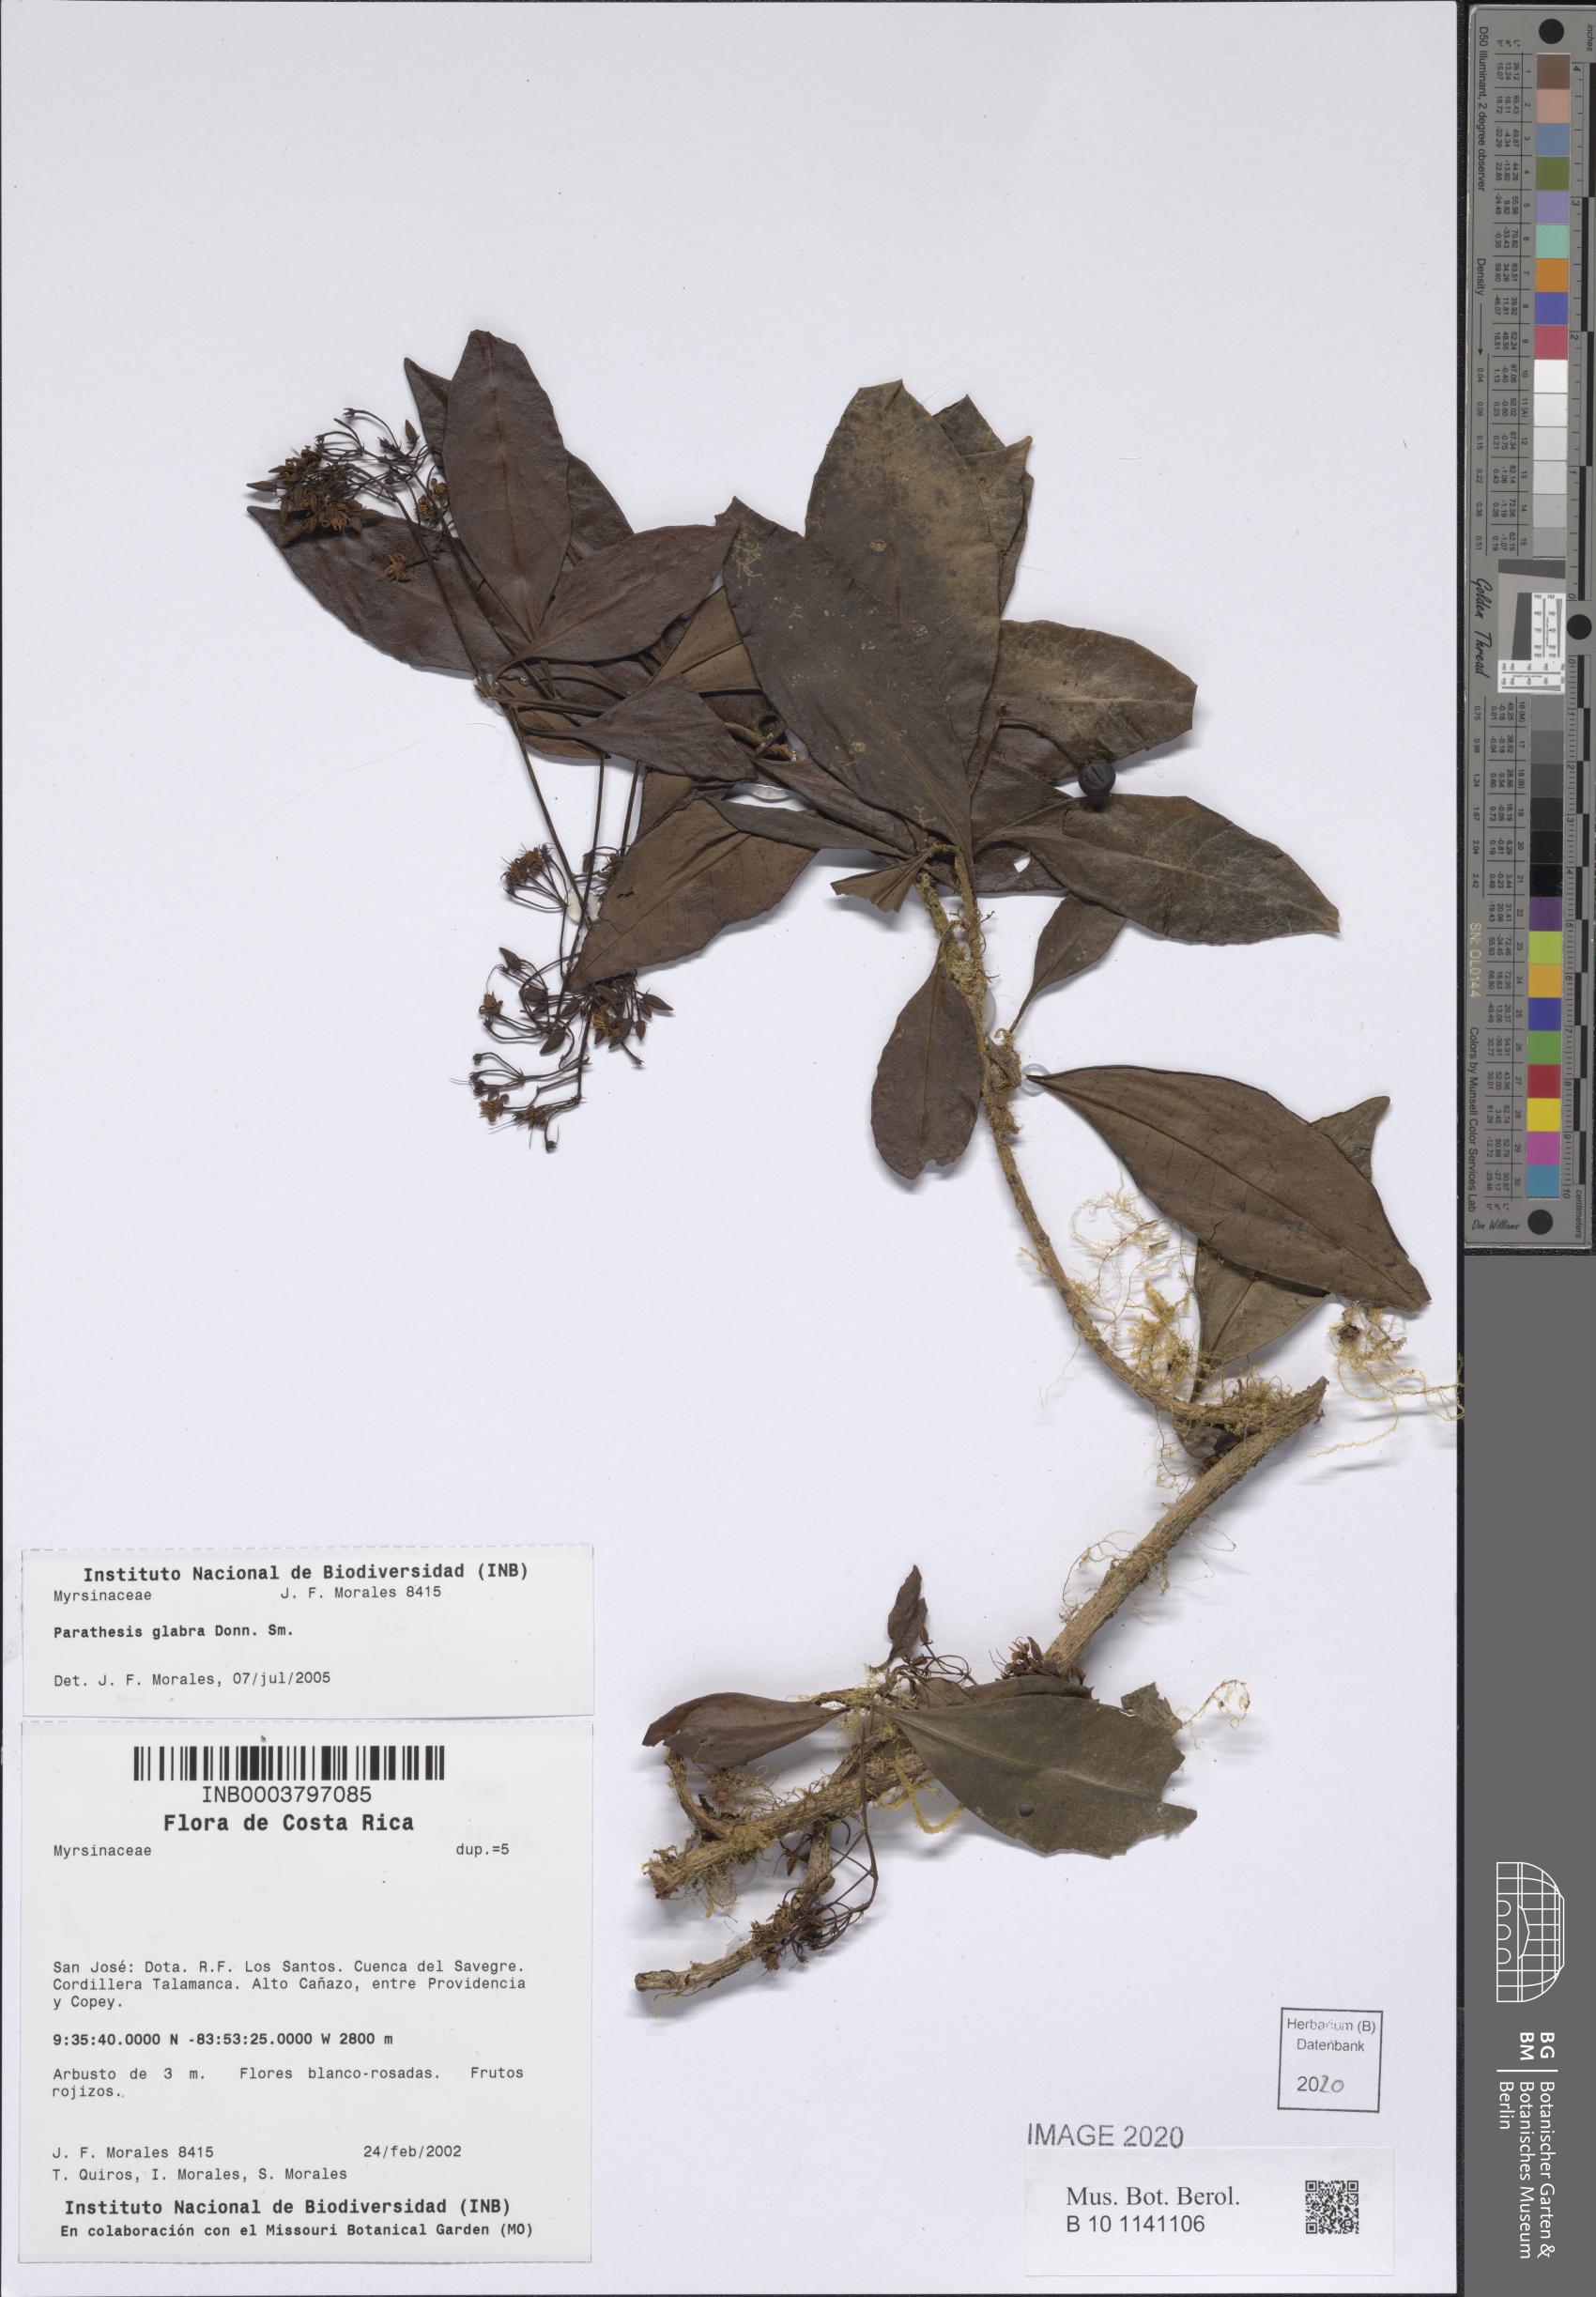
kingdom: Plantae
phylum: Tracheophyta
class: Magnoliopsida
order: Ericales
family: Primulaceae
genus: Parathesis
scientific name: Parathesis glabra
